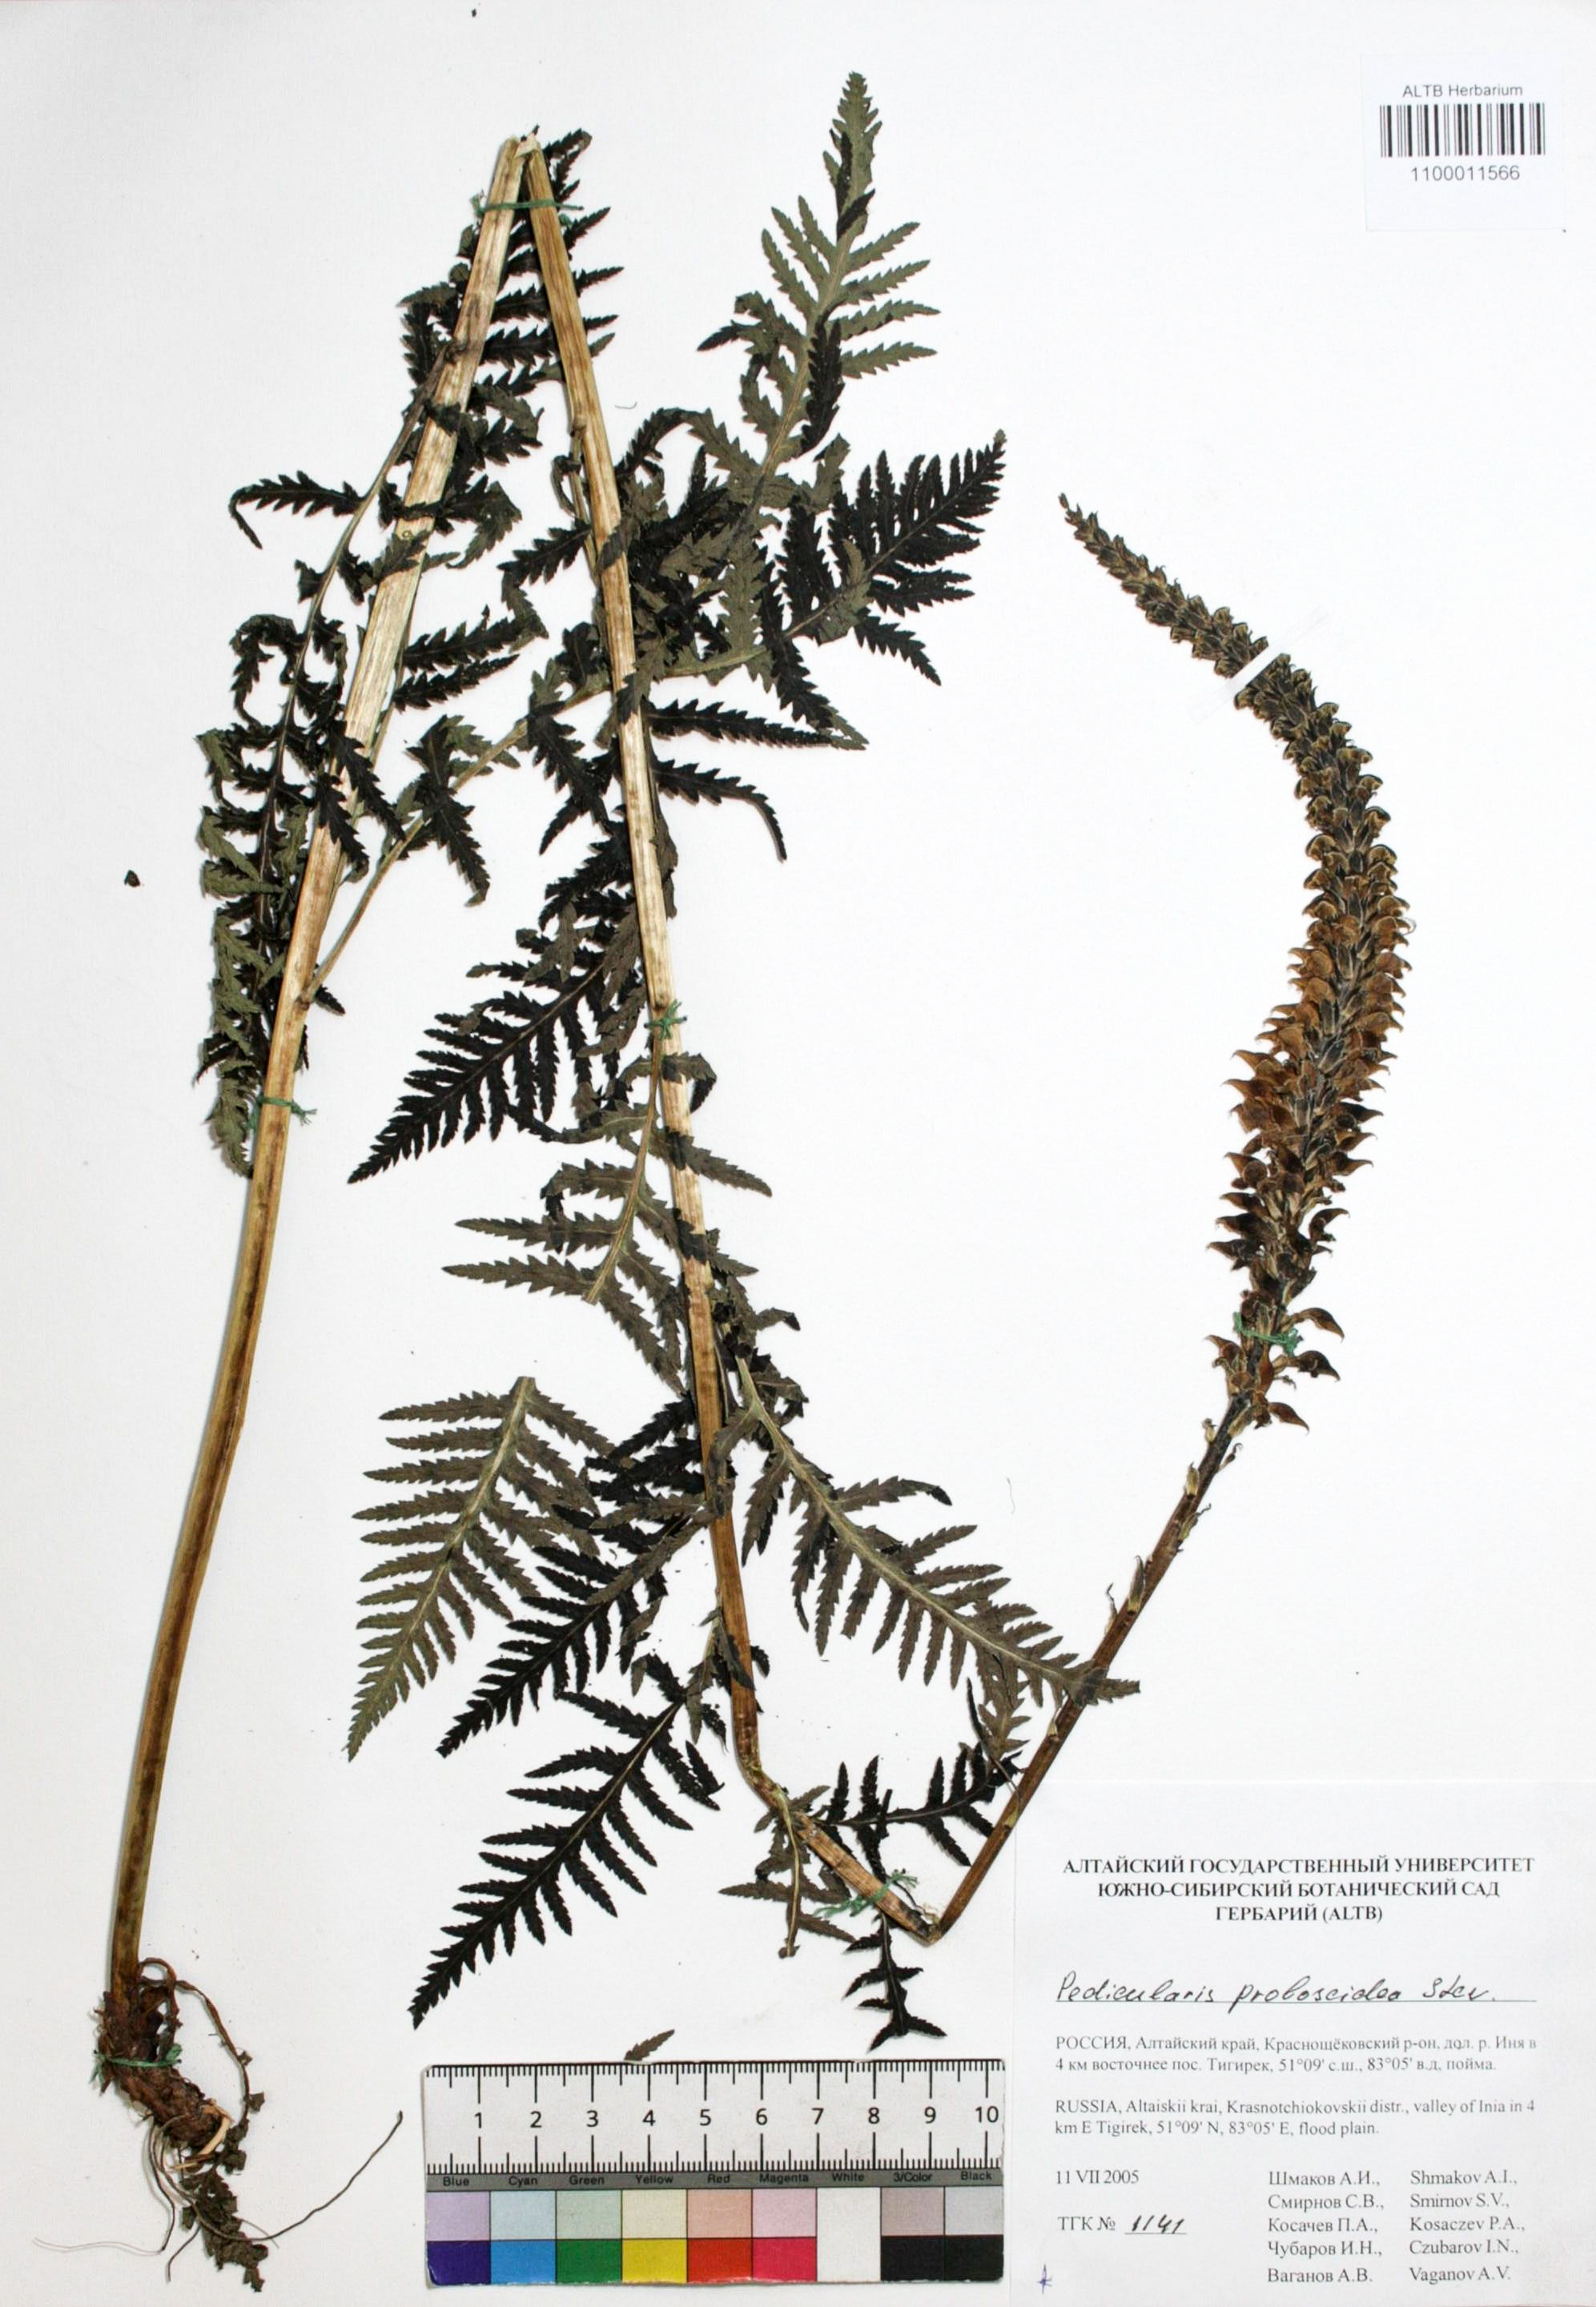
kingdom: Plantae
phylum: Tracheophyta
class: Magnoliopsida
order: Lamiales
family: Orobanchaceae
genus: Pedicularis
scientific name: Pedicularis proboscidea
